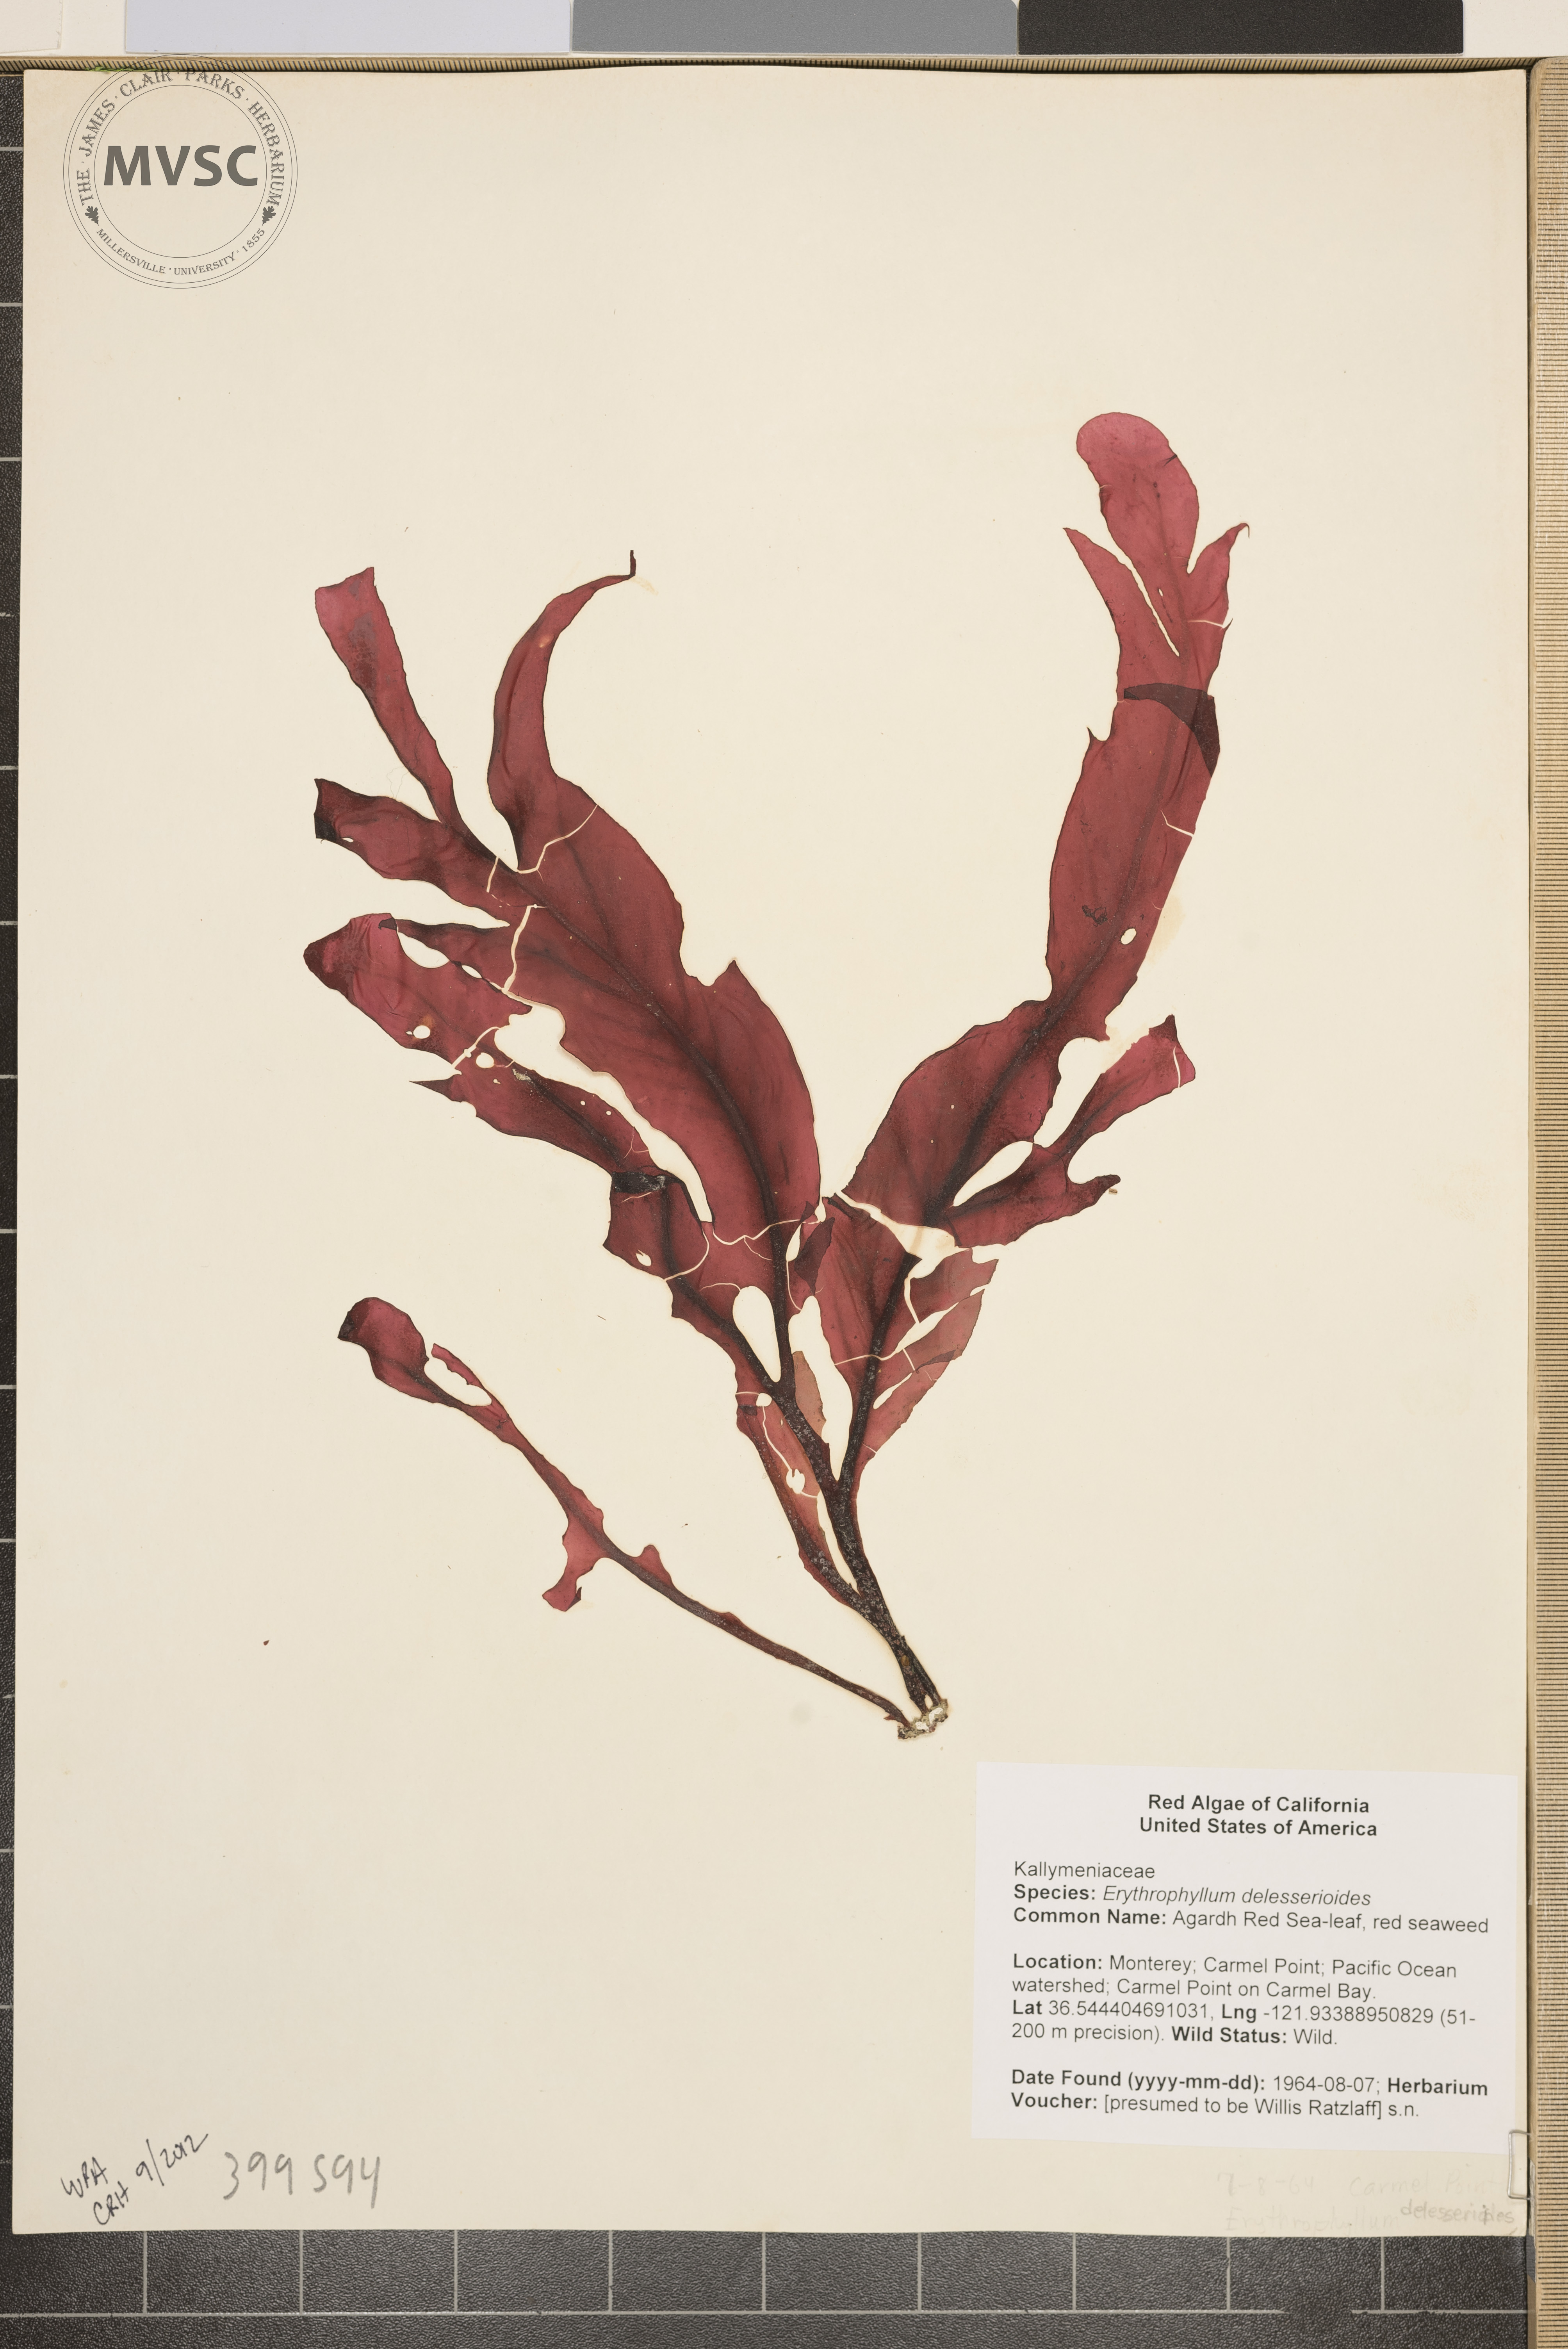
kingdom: Plantae
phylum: Rhodophyta
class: Florideophyceae
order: Gigartinales
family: Kallymeniaceae
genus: Erythrophyllum
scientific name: Erythrophyllum
